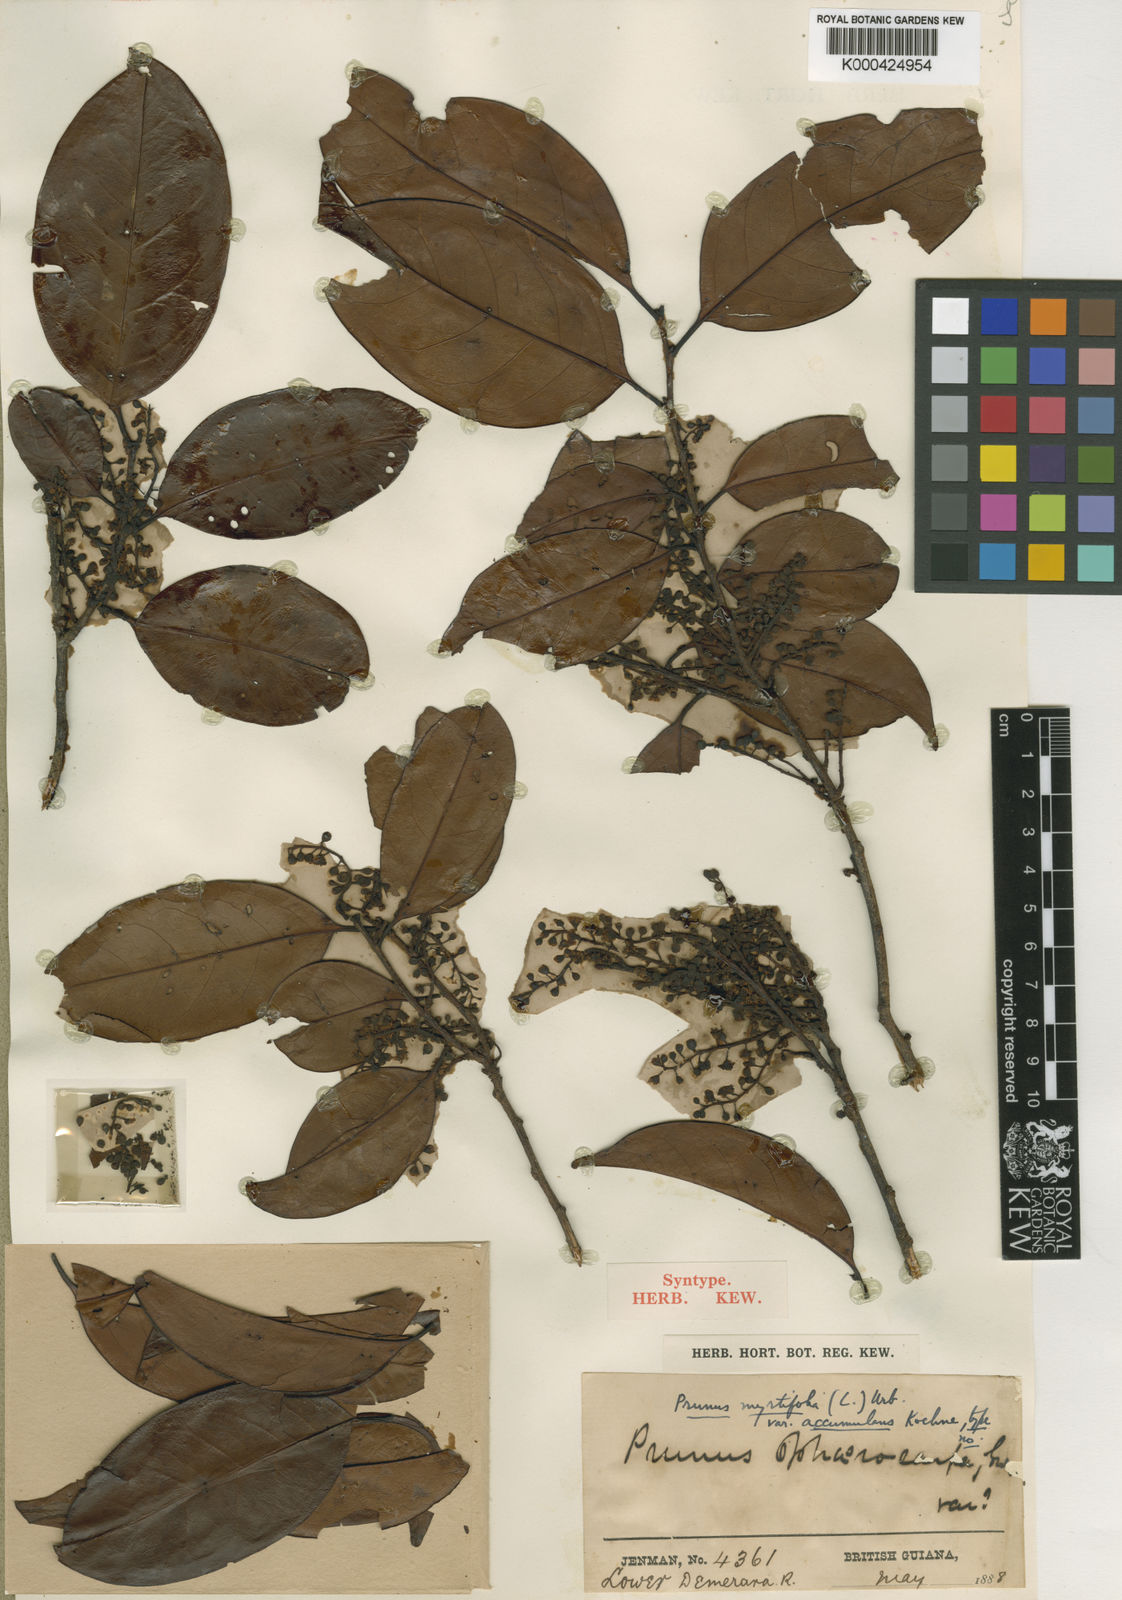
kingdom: Plantae
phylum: Tracheophyta
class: Magnoliopsida
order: Rosales
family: Rosaceae
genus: Prunus
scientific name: Prunus myrtifolia
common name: West indies cherry
